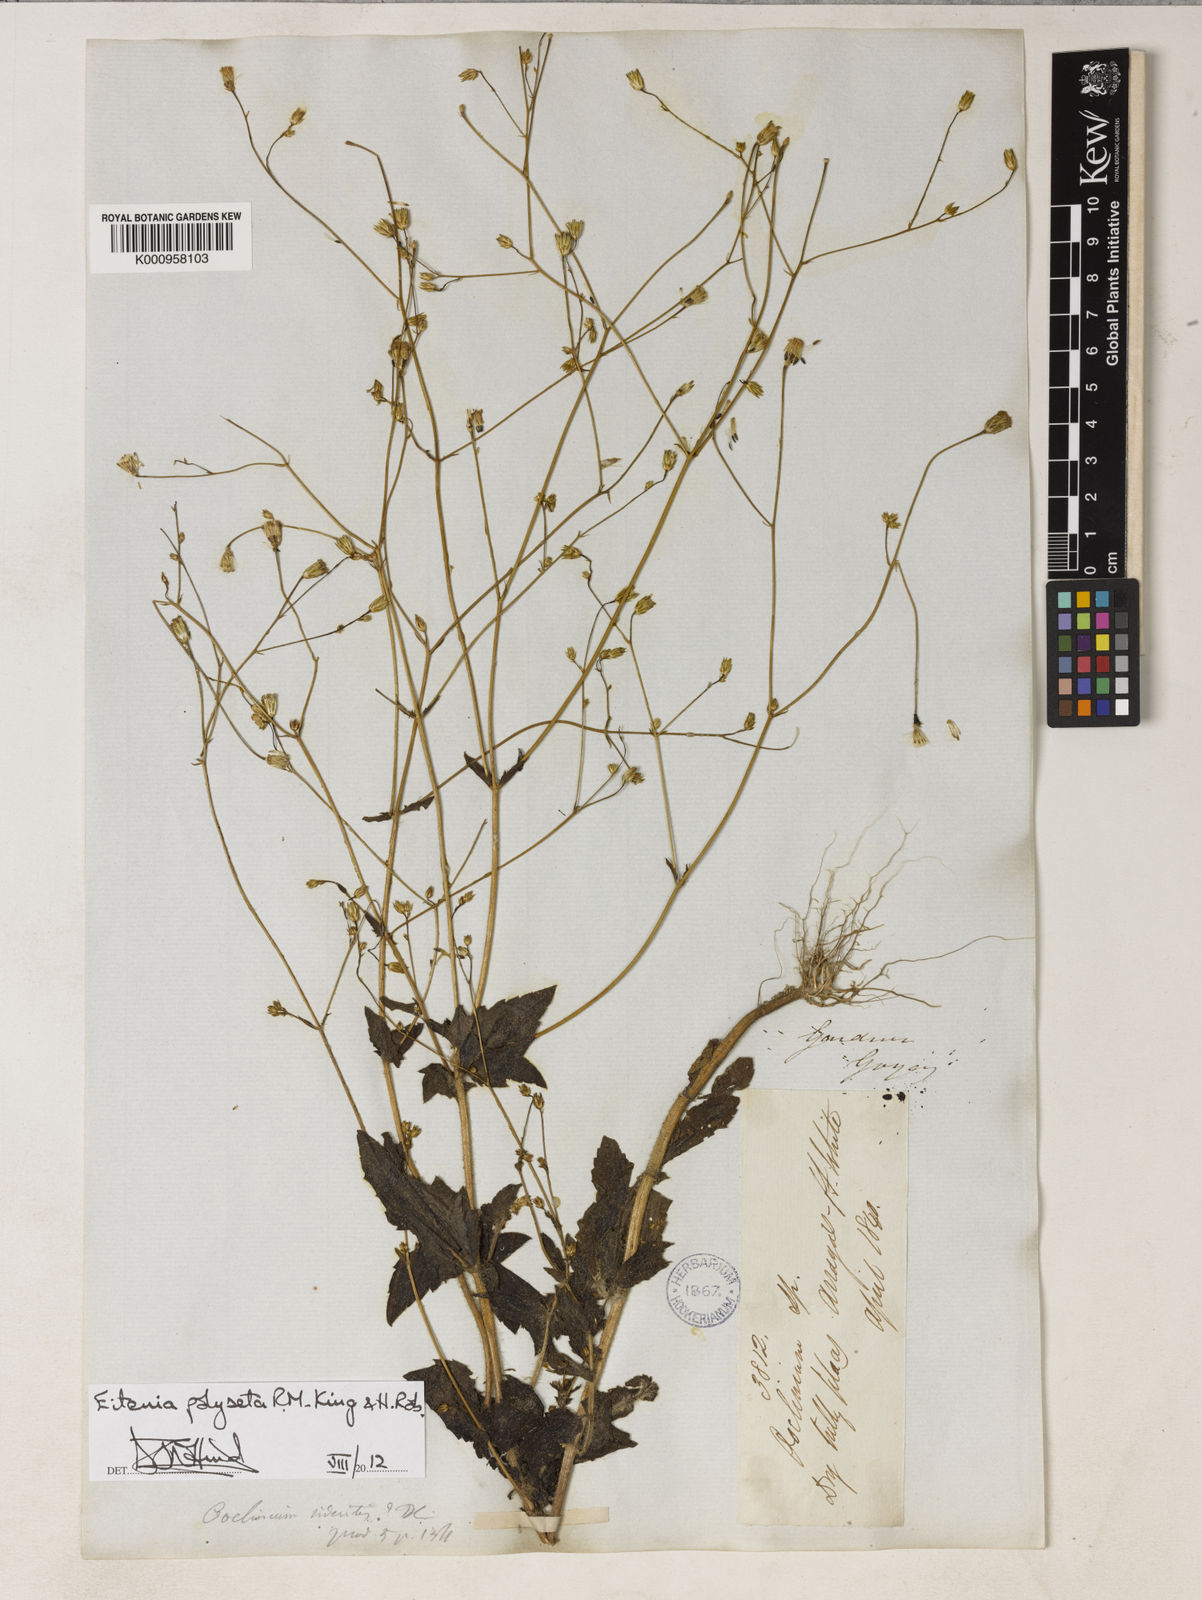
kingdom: Plantae
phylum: Tracheophyta
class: Magnoliopsida
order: Asterales
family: Asteraceae
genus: Eitenia
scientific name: Eitenia polyseta
